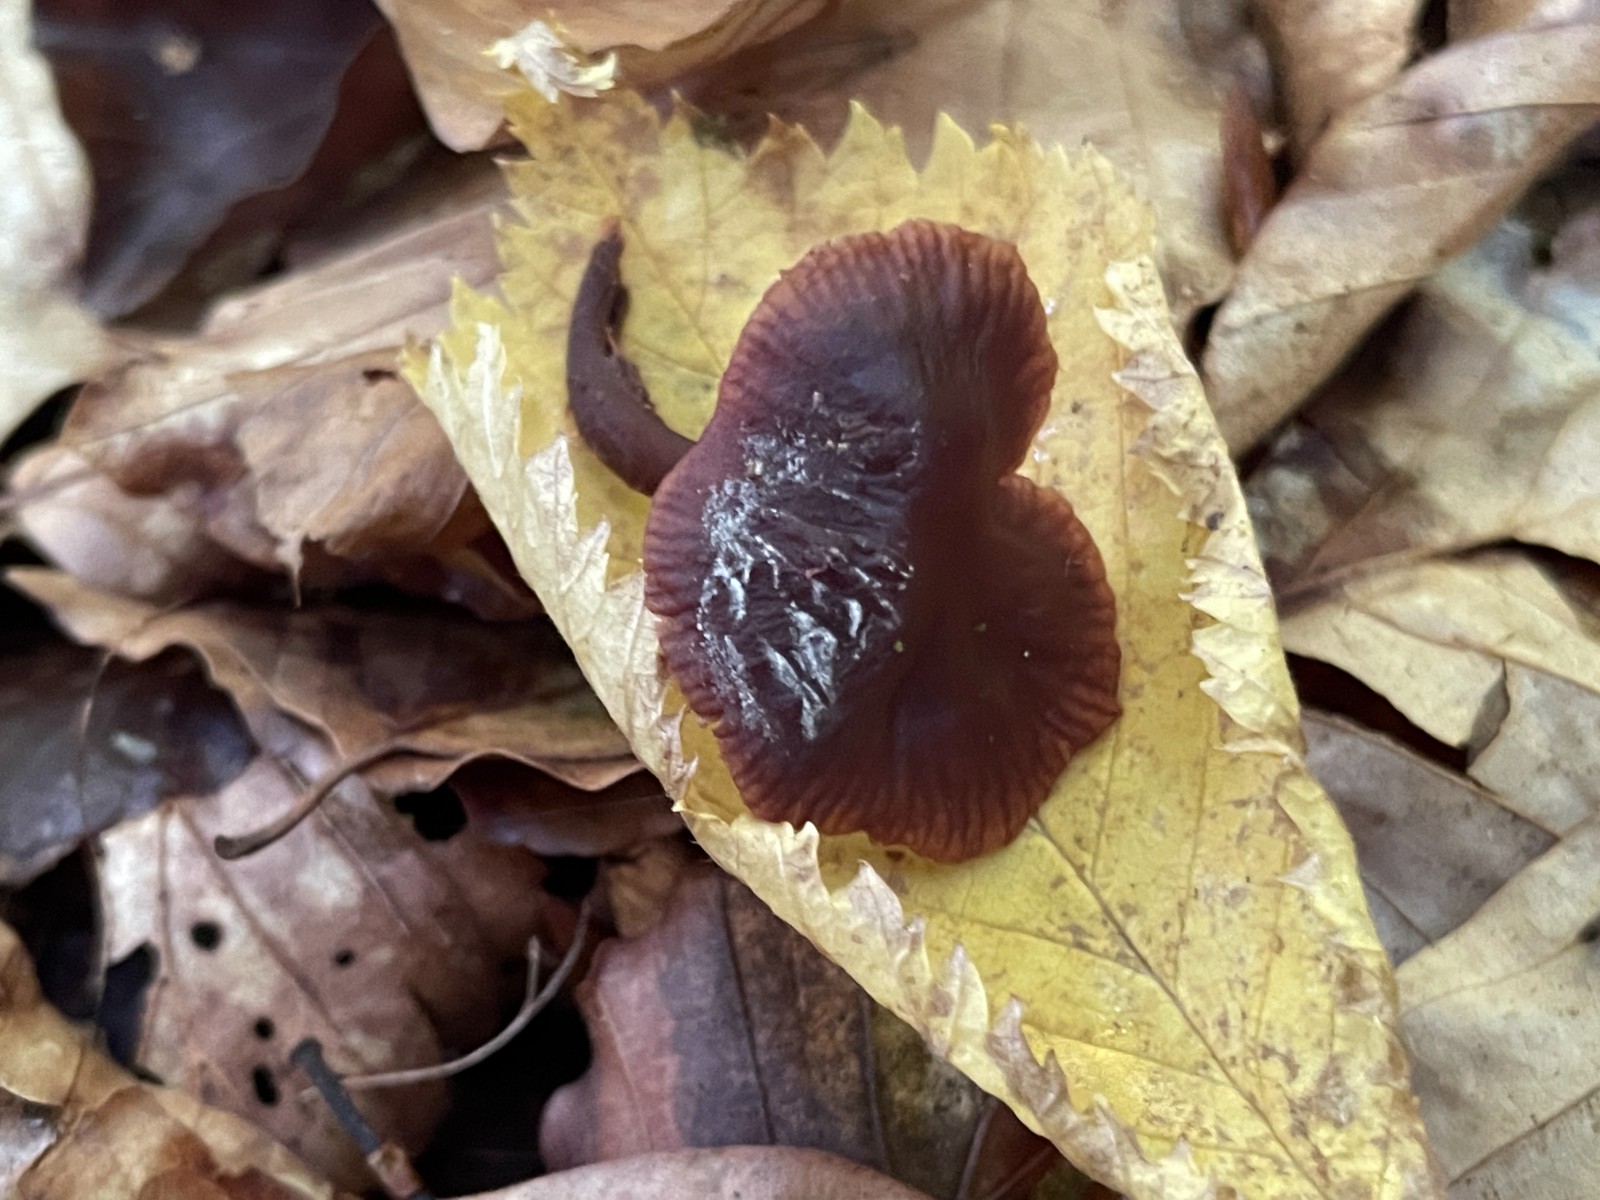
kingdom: Fungi
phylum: Basidiomycota
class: Agaricomycetes
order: Agaricales
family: Omphalotaceae
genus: Gymnopus
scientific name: Gymnopus fuscopurpureus
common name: purpurbrun fladhat
